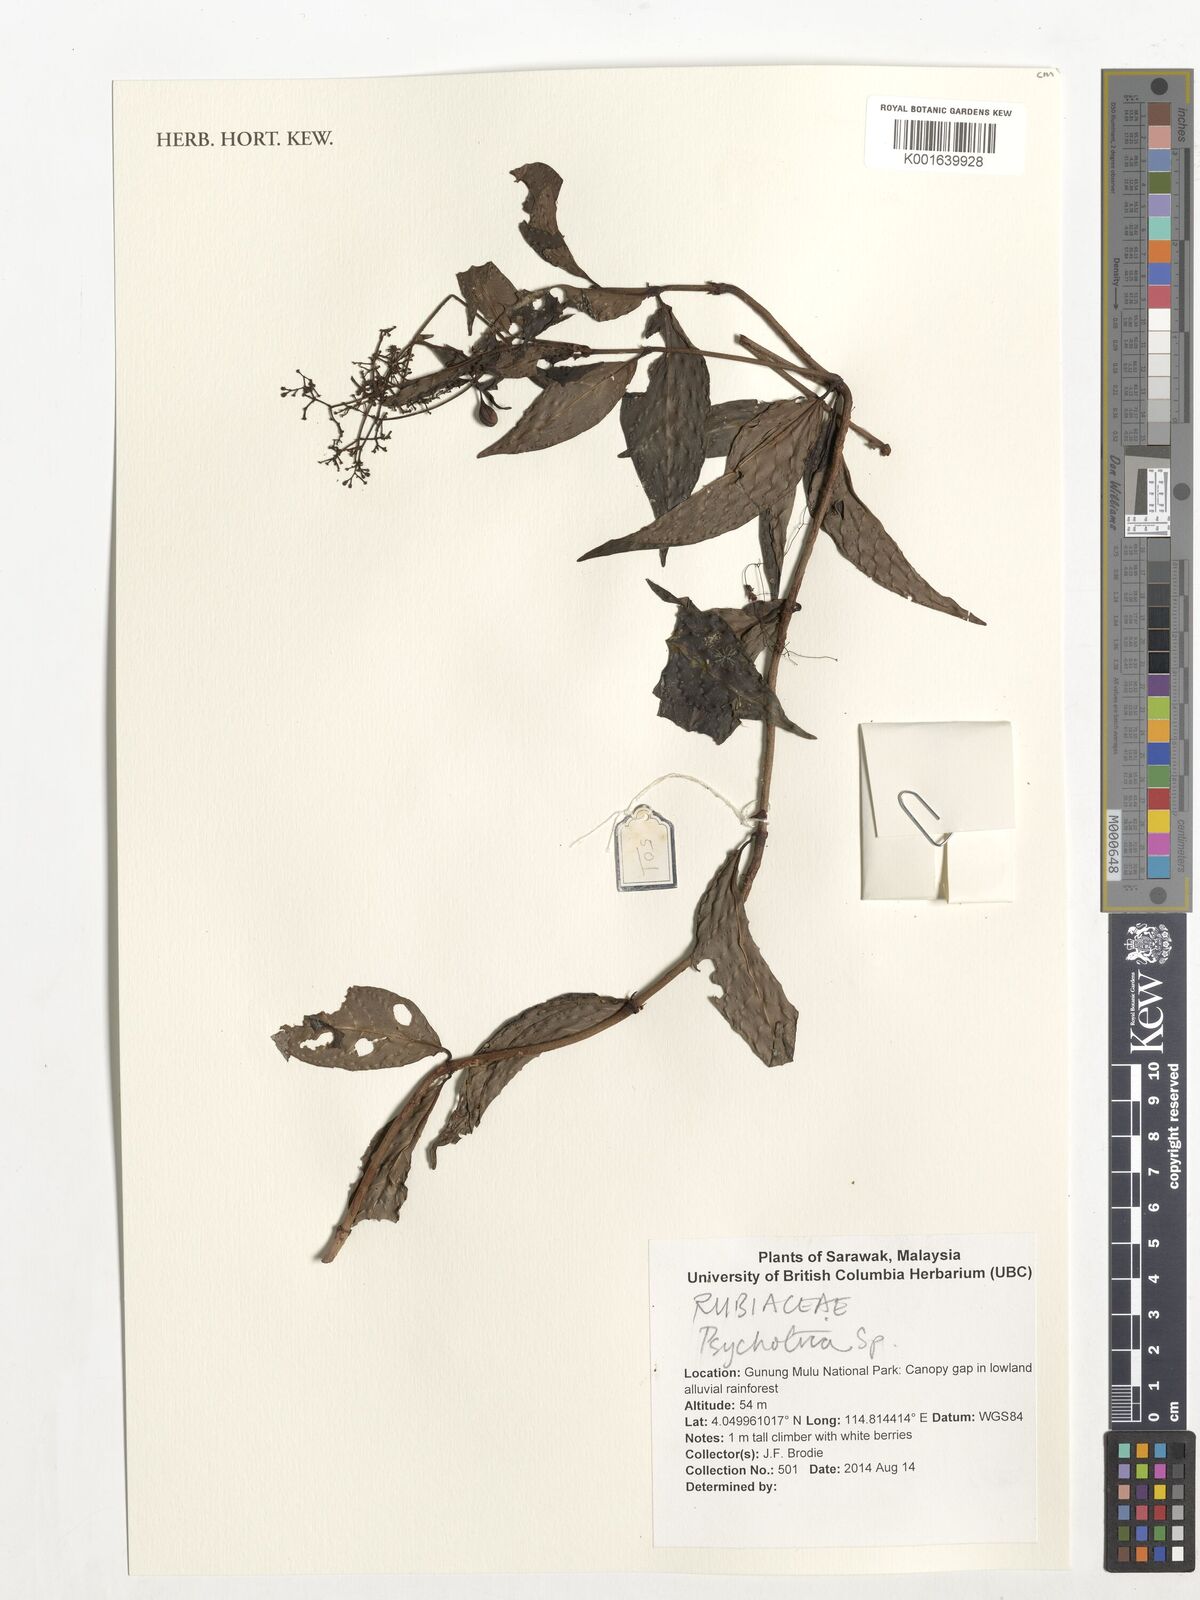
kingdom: Plantae
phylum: Tracheophyta
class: Magnoliopsida
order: Gentianales
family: Rubiaceae
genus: Psychotria
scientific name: Psychotria
